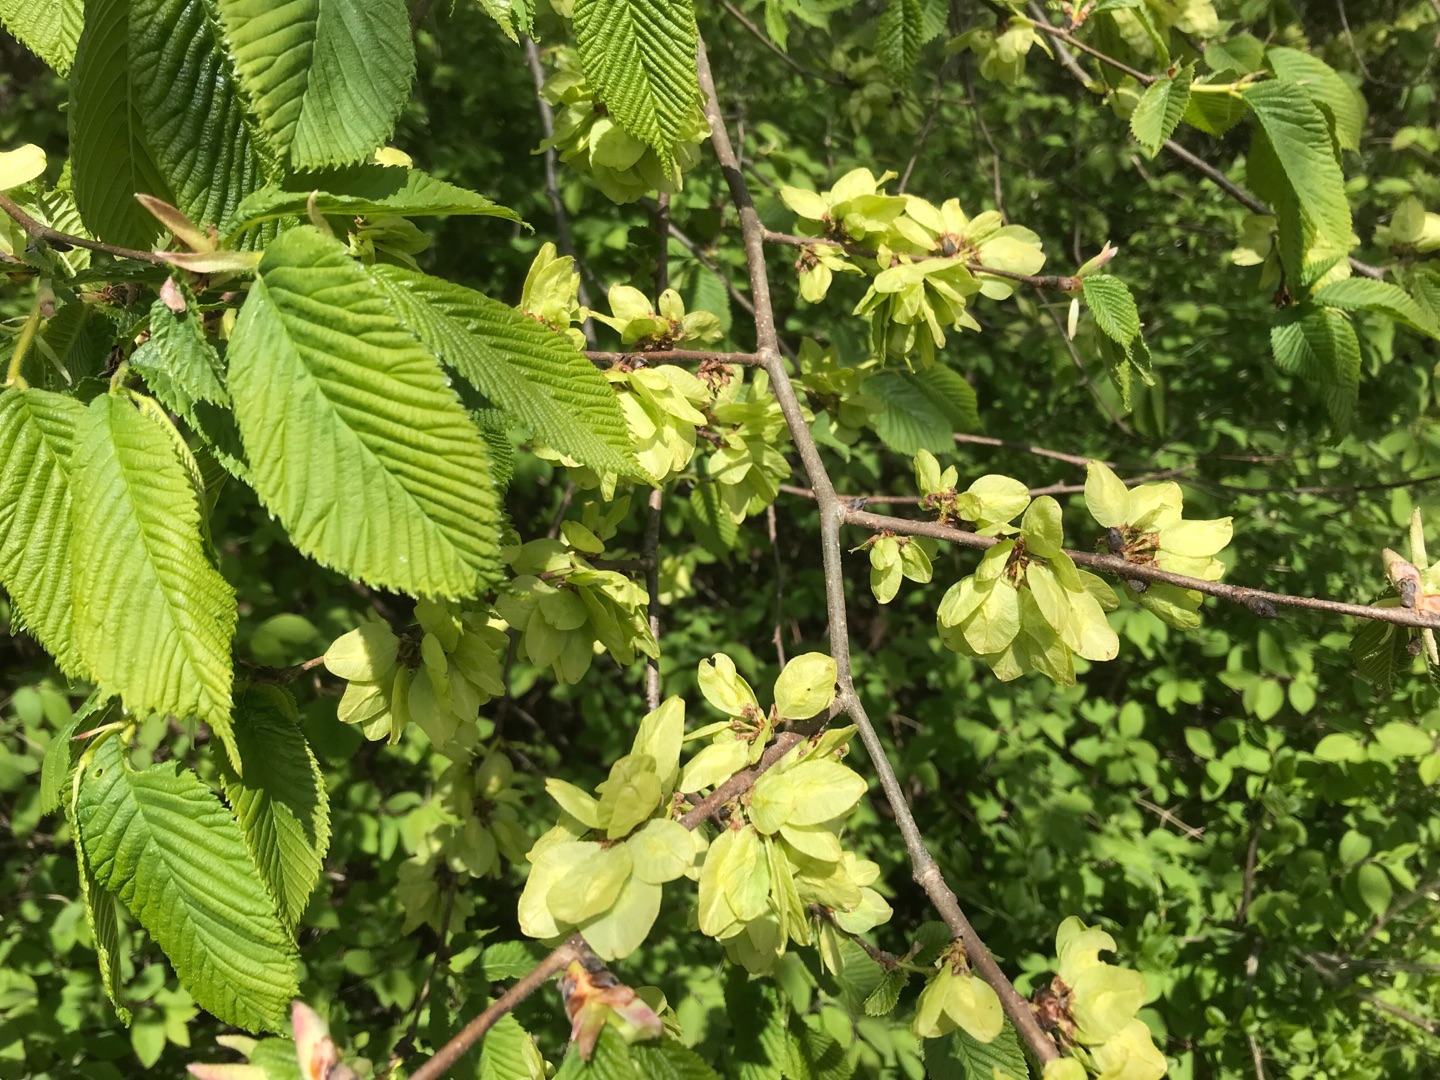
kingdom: Plantae
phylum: Tracheophyta
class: Magnoliopsida
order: Rosales
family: Ulmaceae
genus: Ulmus
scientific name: Ulmus glabra
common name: Skov-elm/storbladet elm
